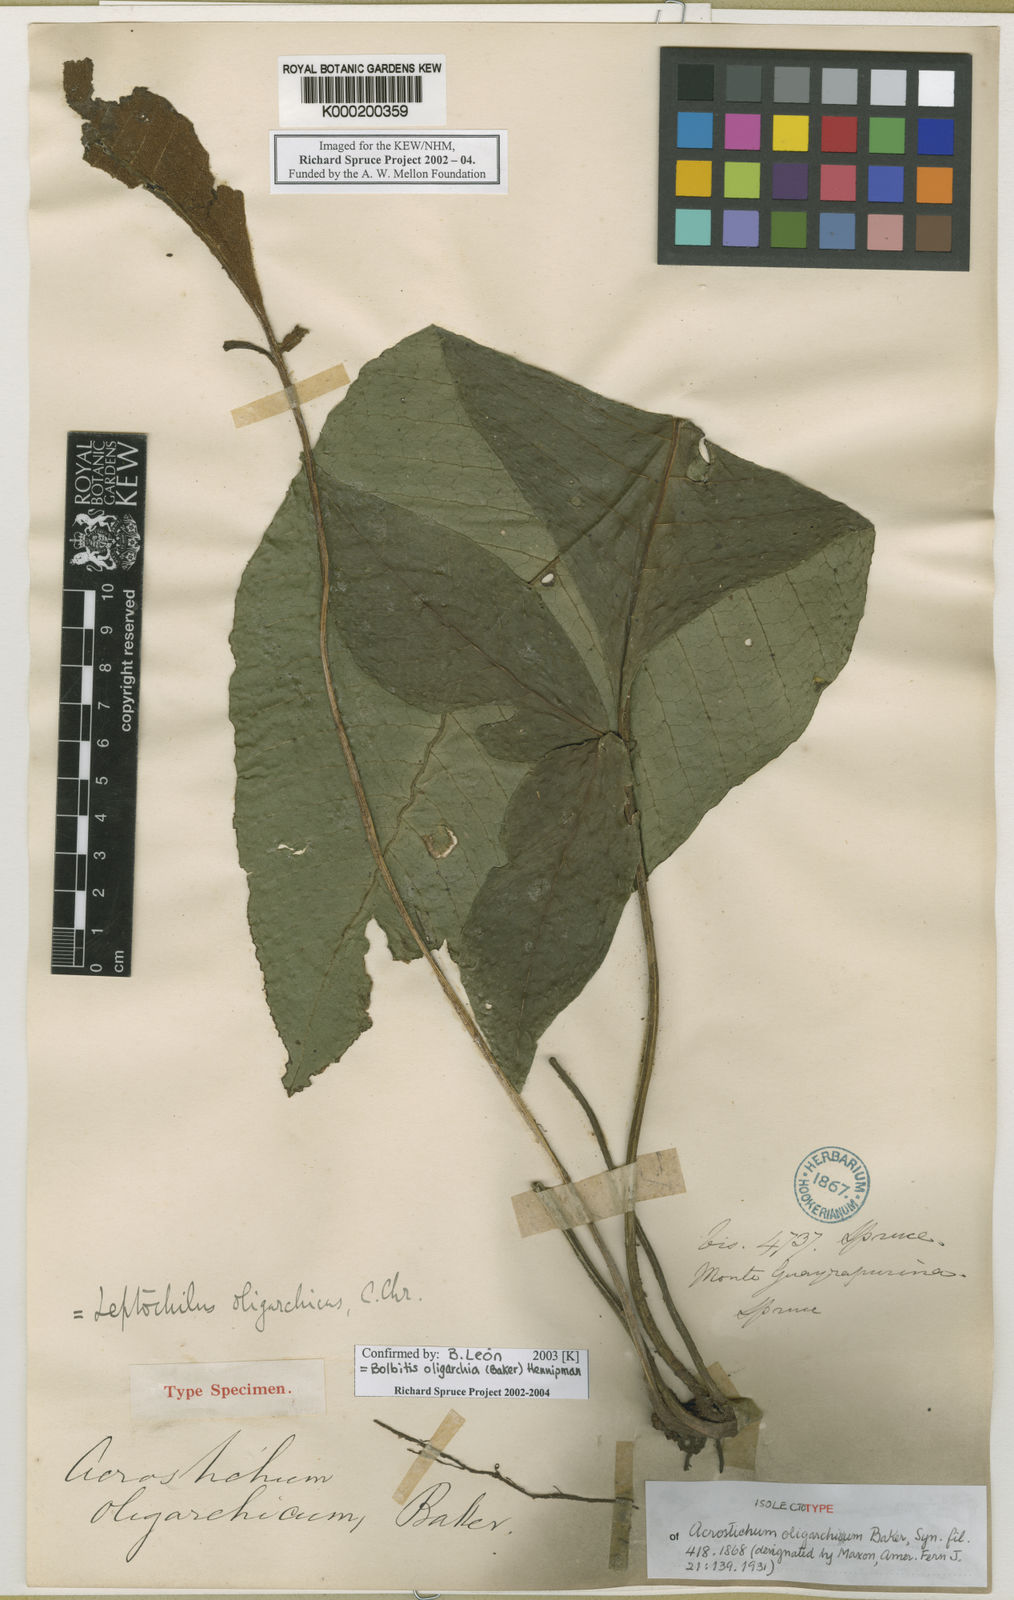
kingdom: Plantae
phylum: Tracheophyta
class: Polypodiopsida
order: Polypodiales
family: Dryopteridaceae
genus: Mickelia
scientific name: Mickelia oligarchica
